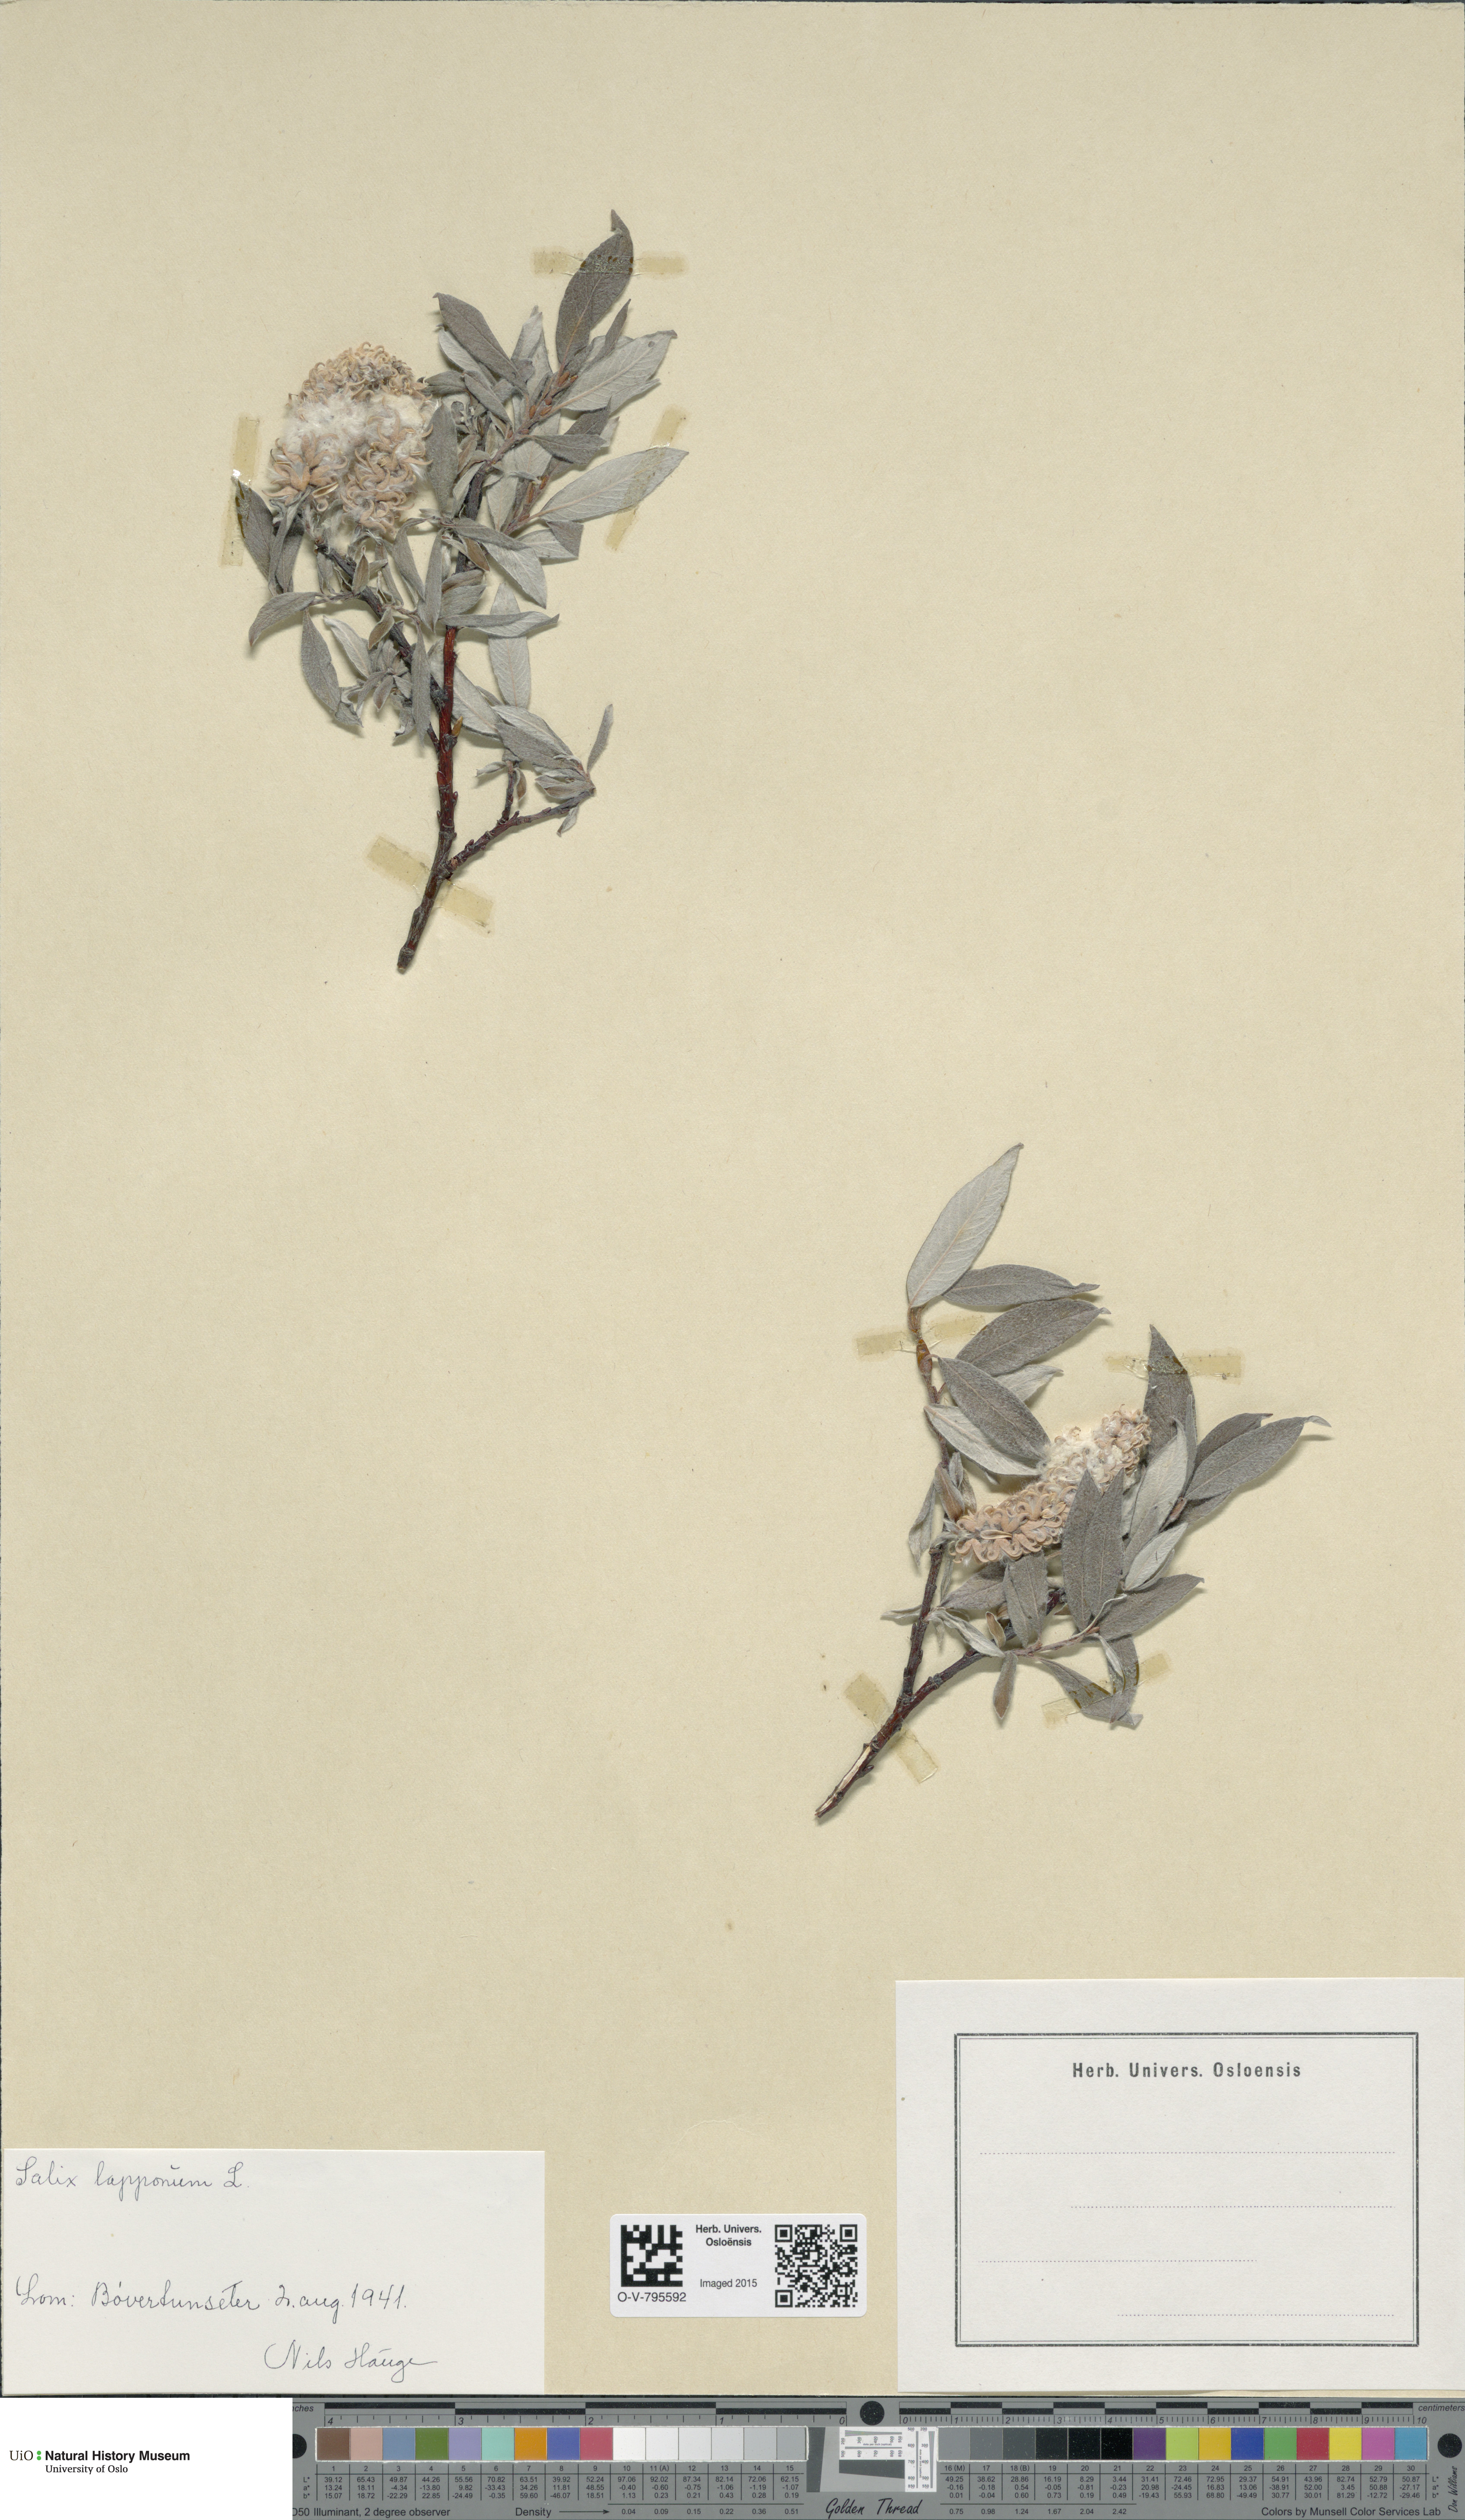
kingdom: Plantae
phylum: Tracheophyta
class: Magnoliopsida
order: Malpighiales
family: Salicaceae
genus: Salix
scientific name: Salix lapponum
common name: Downy willow
